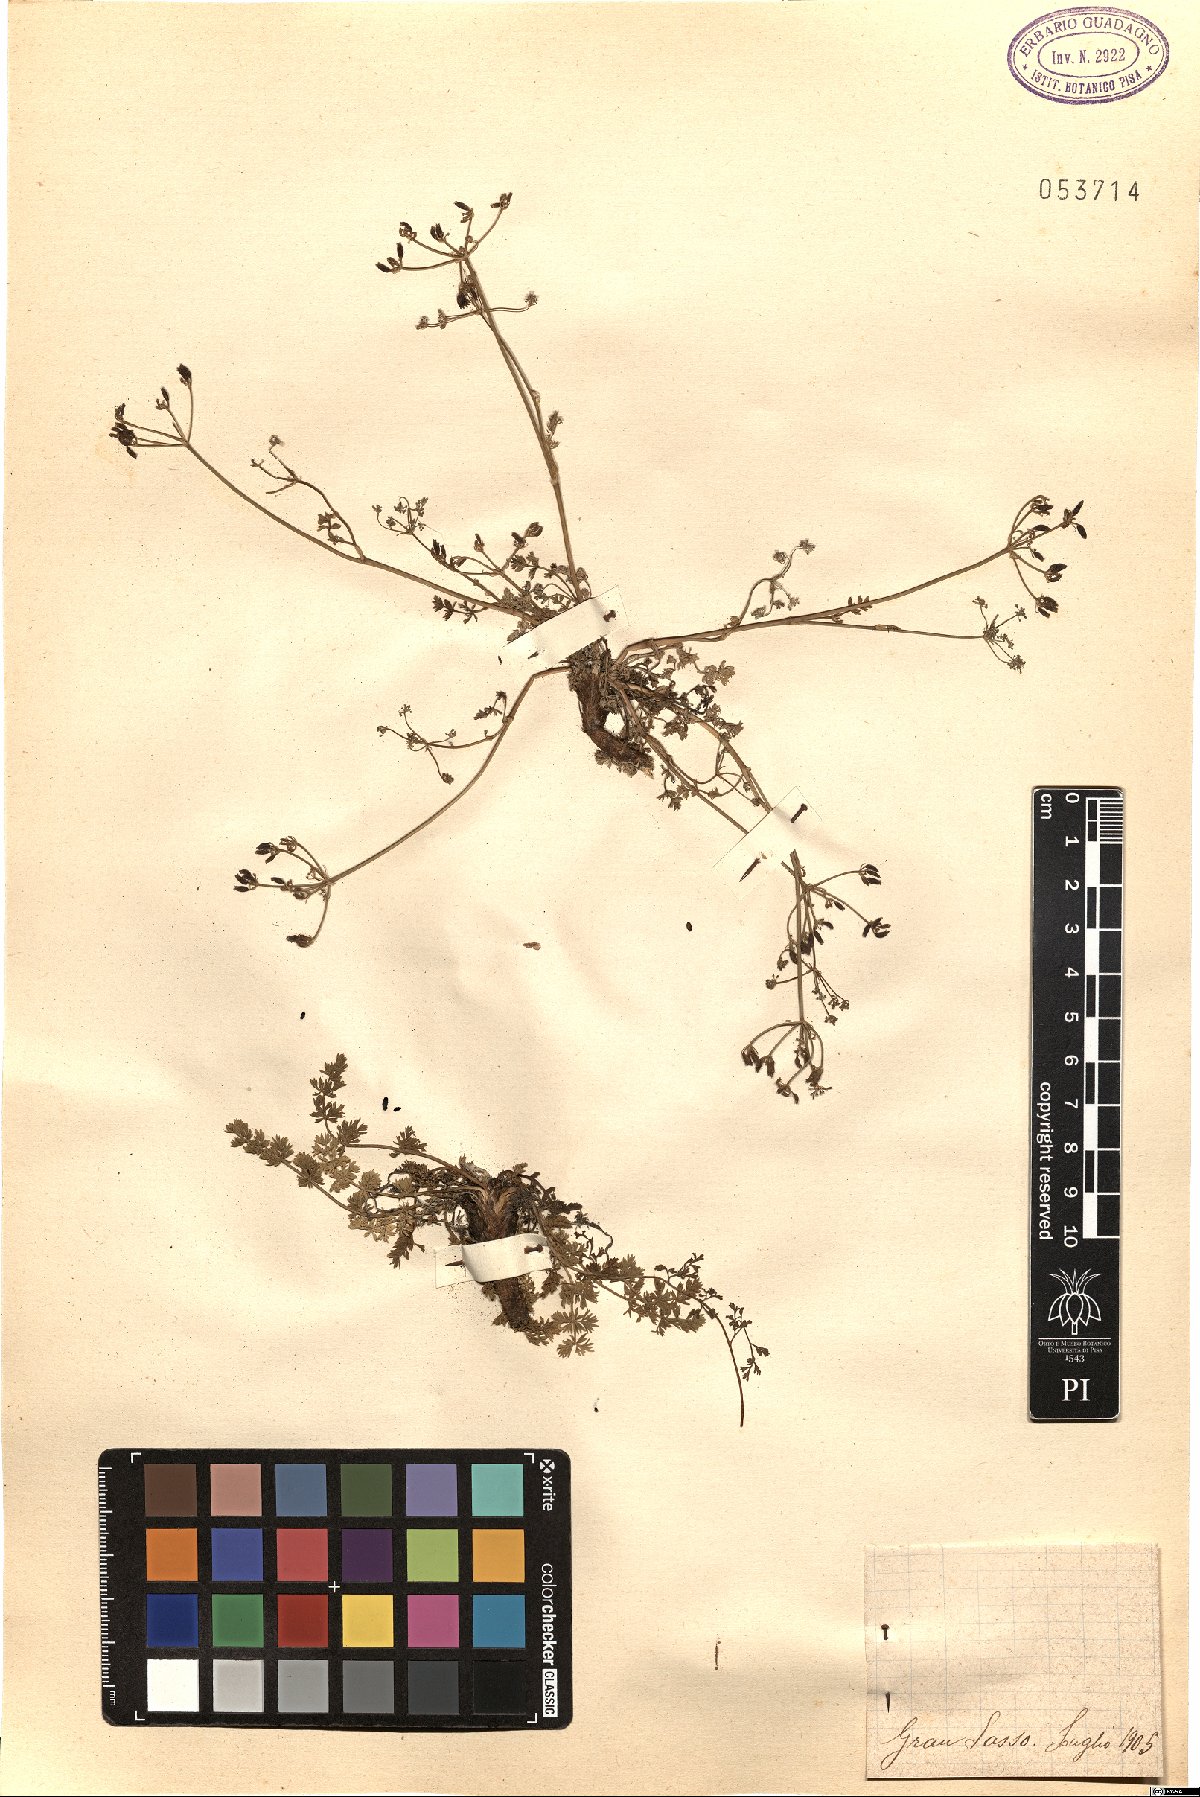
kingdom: Plantae
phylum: Tracheophyta
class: Magnoliopsida
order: Apiales
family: Apiaceae
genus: Carum
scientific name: Carum
